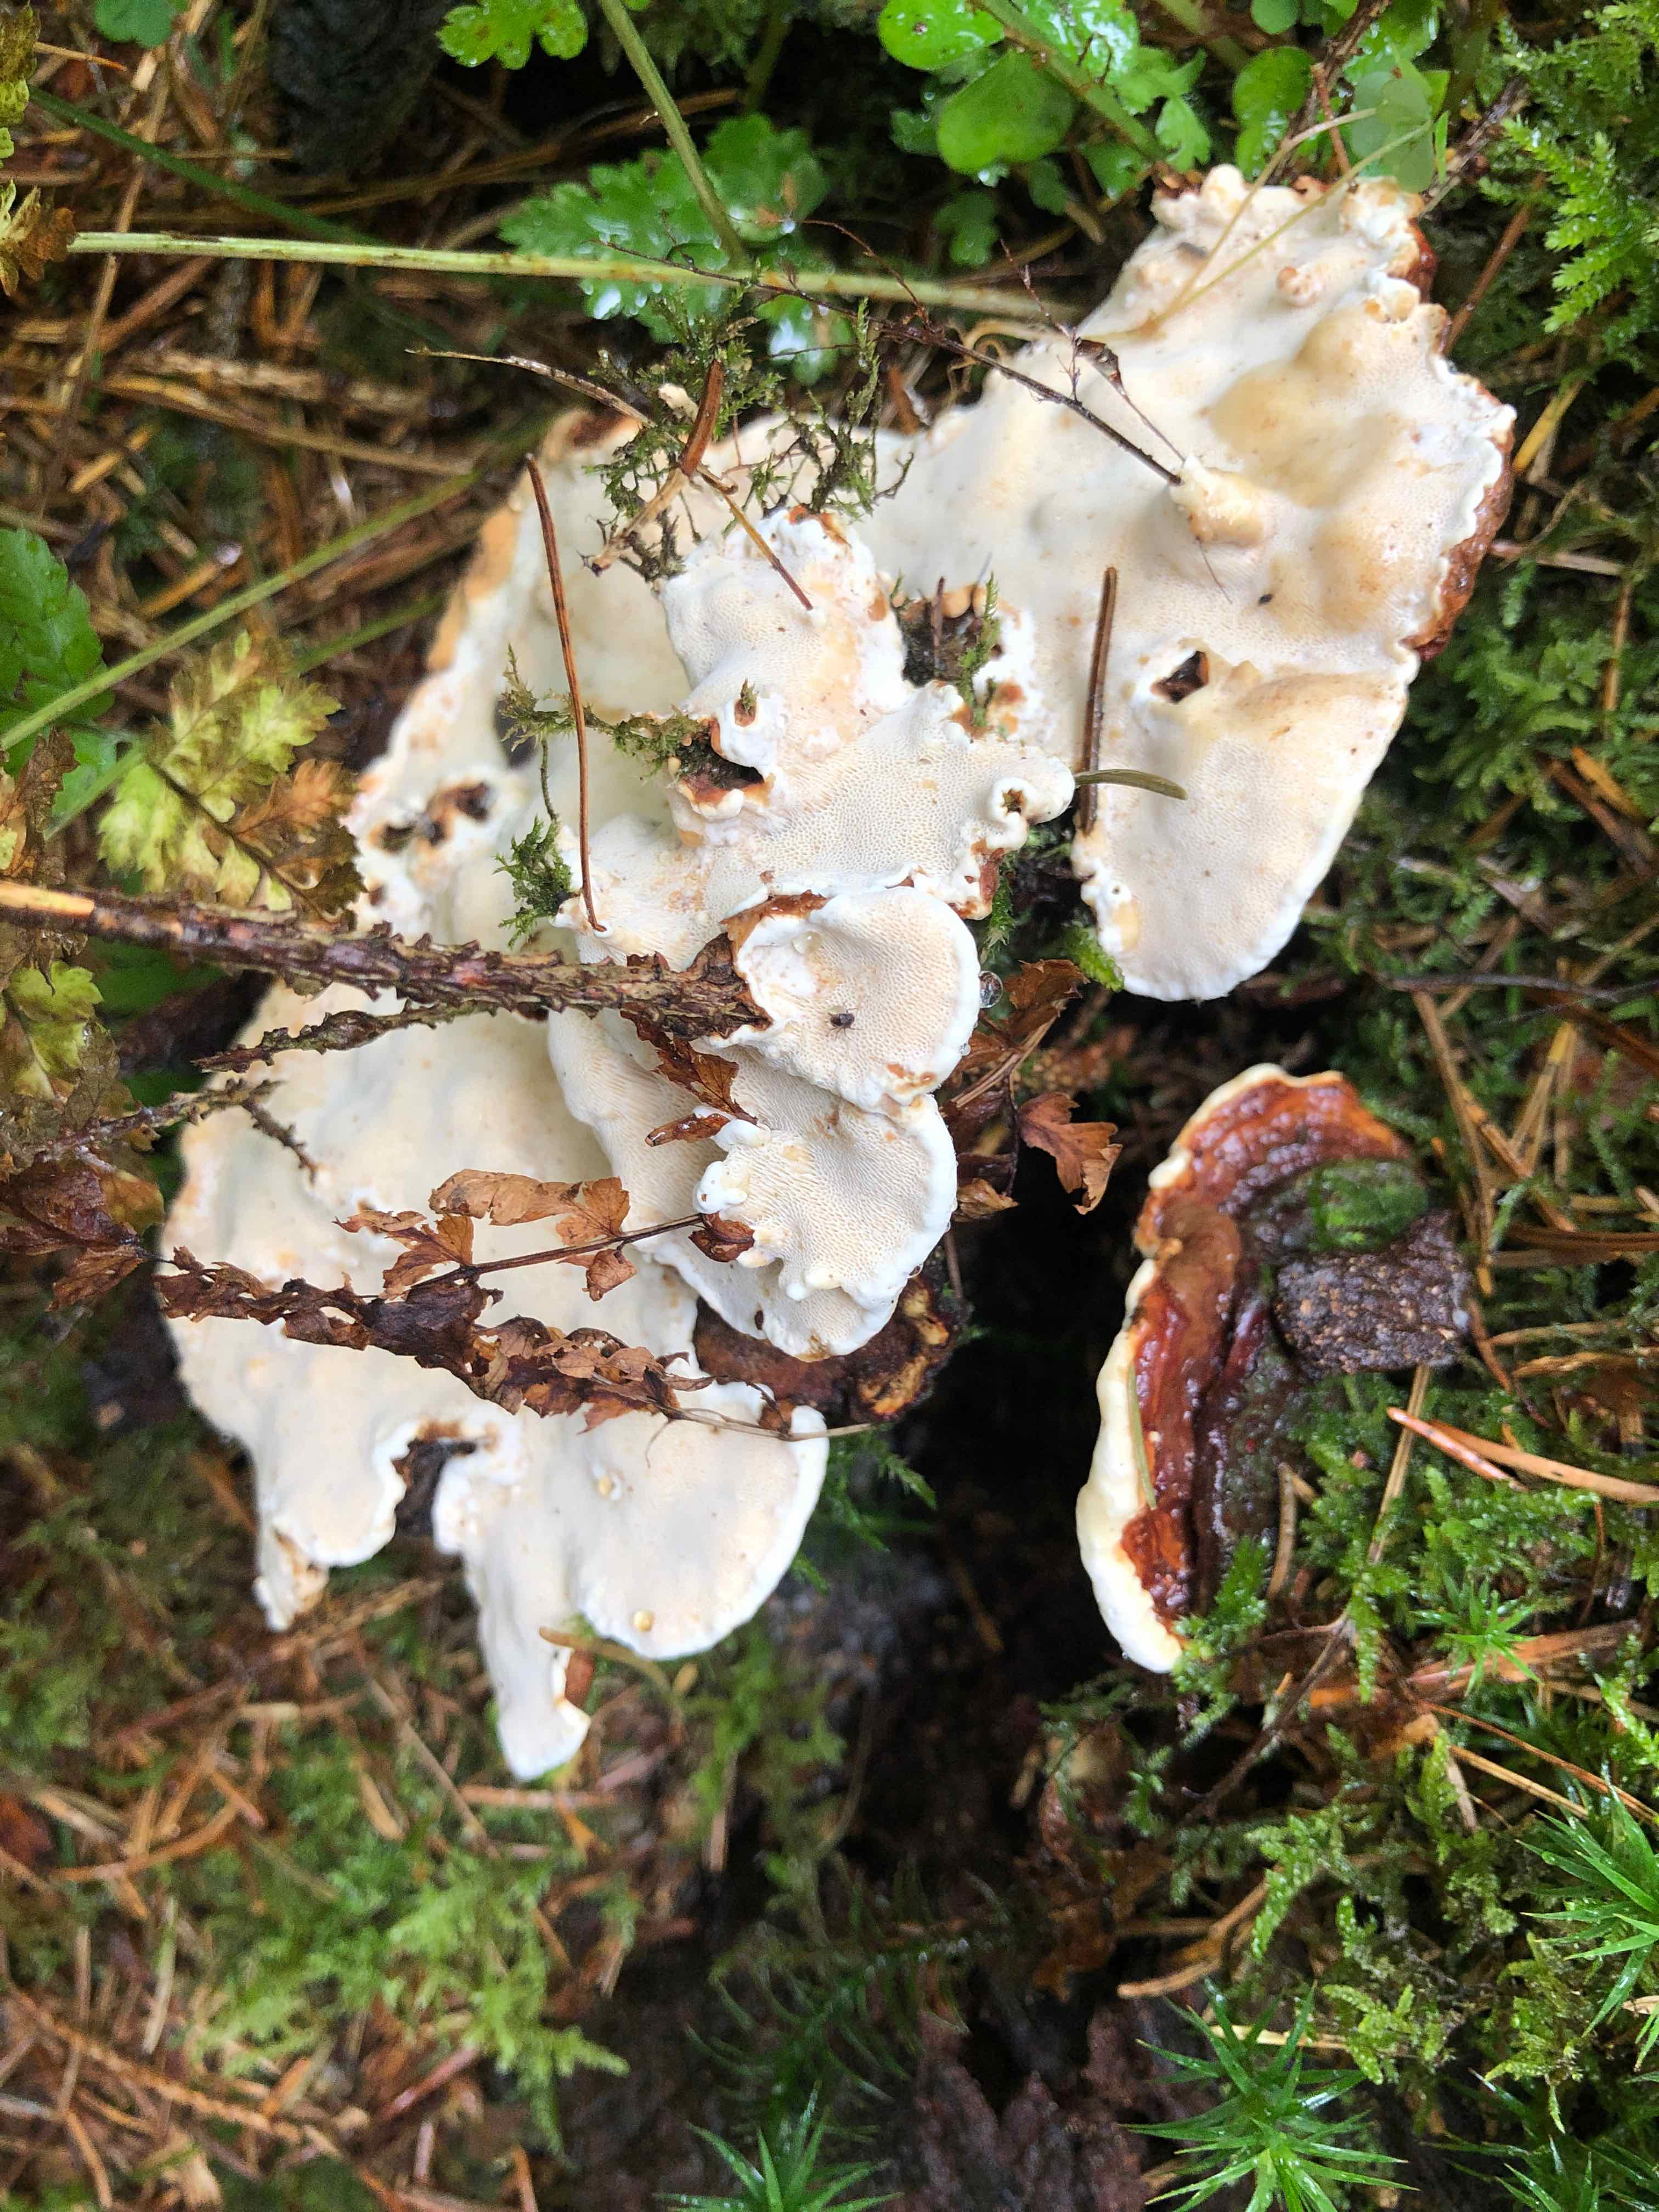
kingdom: Fungi
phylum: Basidiomycota
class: Agaricomycetes
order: Russulales
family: Bondarzewiaceae
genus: Heterobasidion
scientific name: Heterobasidion annosum
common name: almindelig rodfordærver
